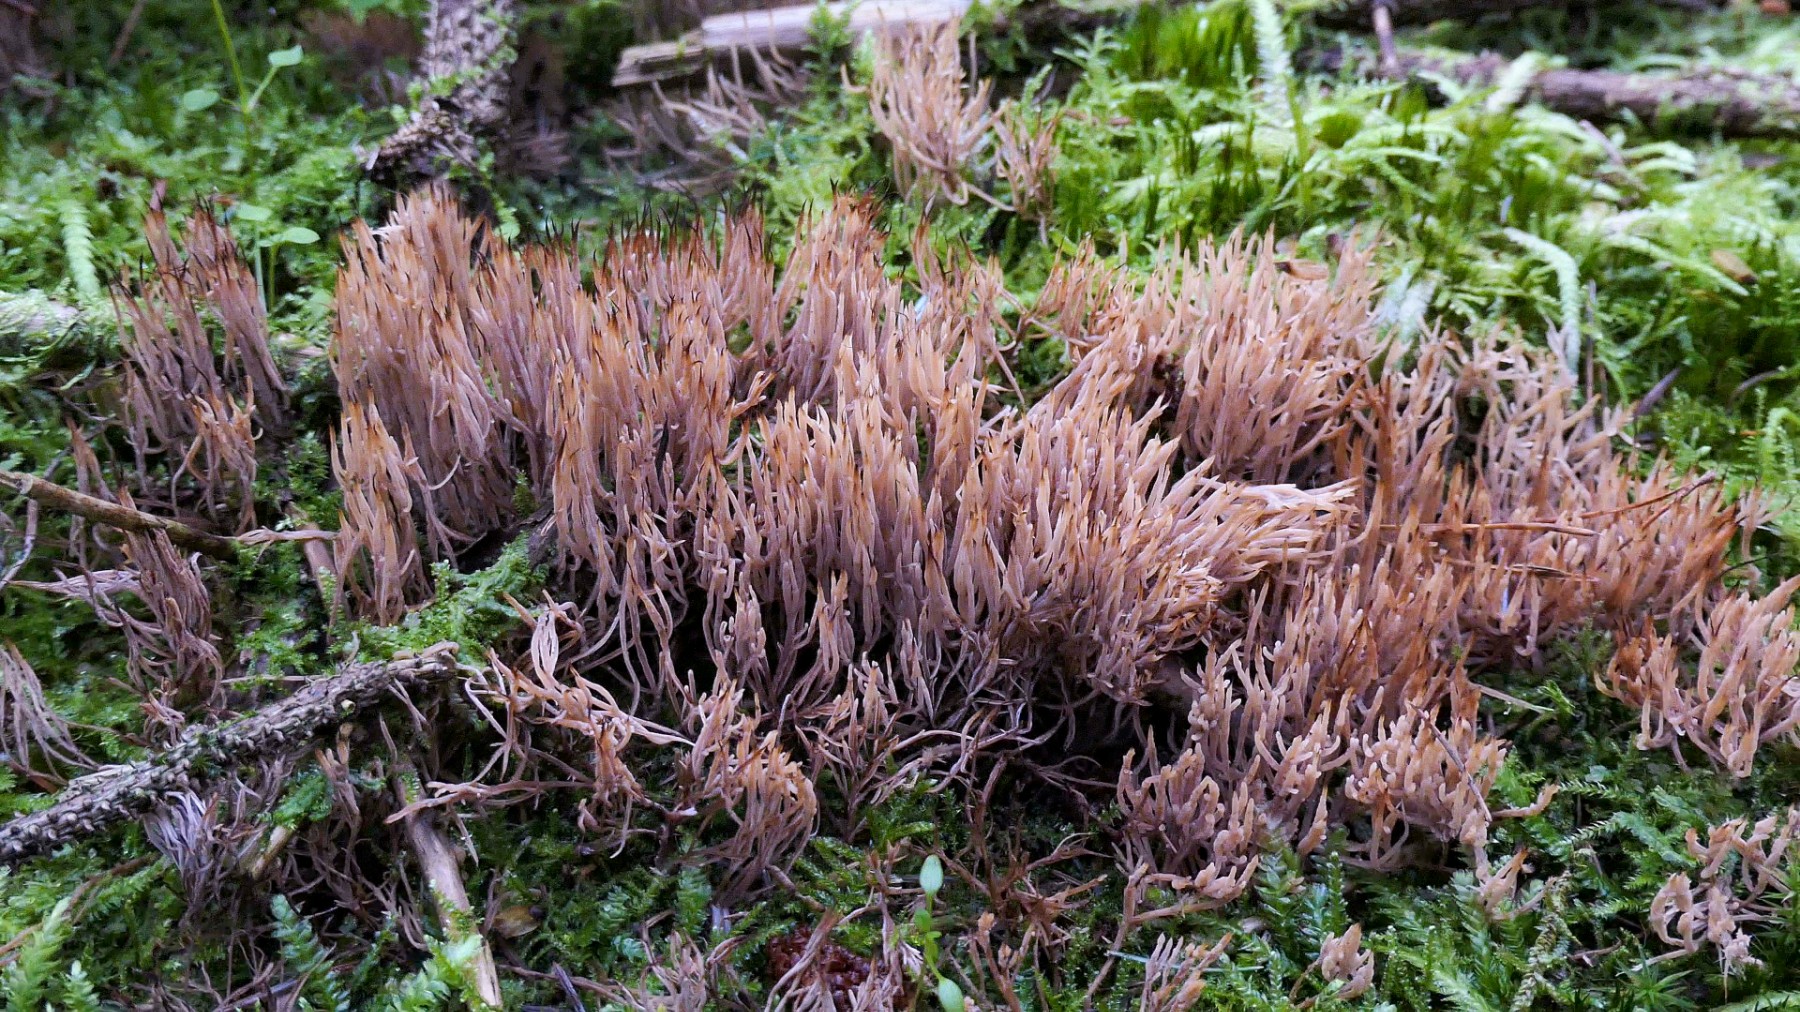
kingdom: Fungi
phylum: Basidiomycota
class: Agaricomycetes
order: Agaricales
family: Pterulaceae
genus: Pterula
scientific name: Pterula multifida
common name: busket fjerkølle
